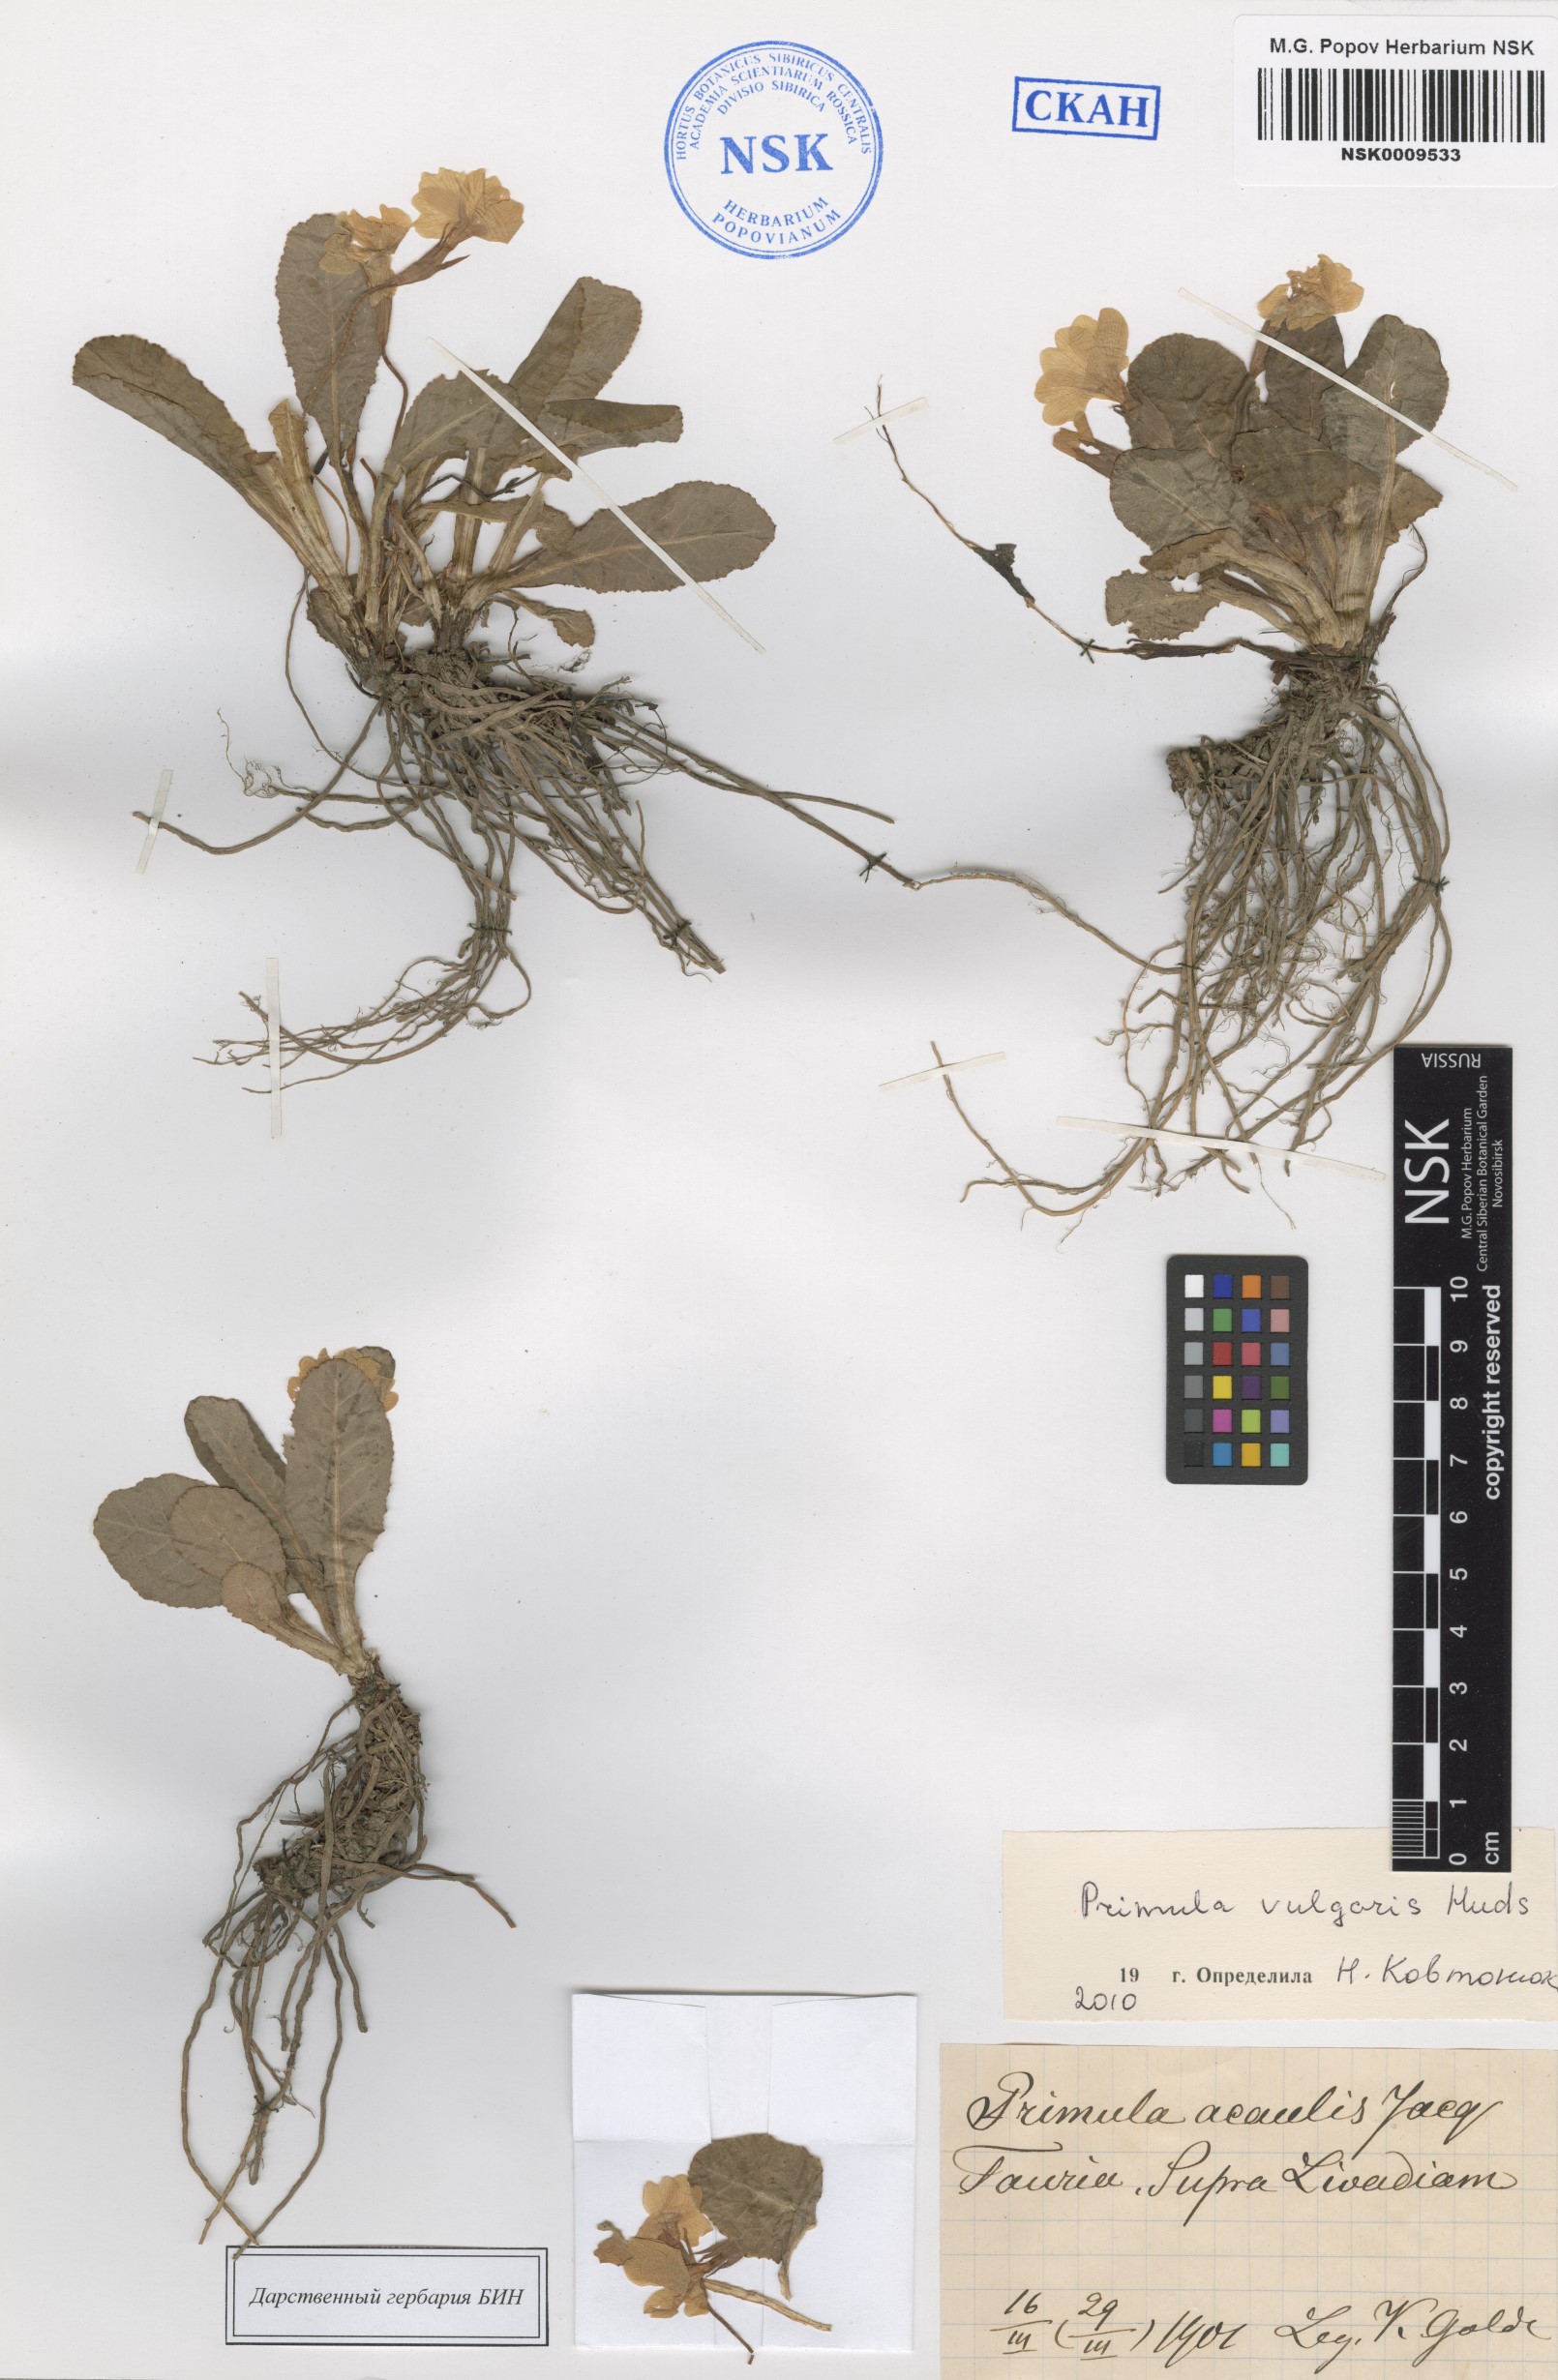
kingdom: Plantae
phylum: Tracheophyta
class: Magnoliopsida
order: Ericales
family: Primulaceae
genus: Primula
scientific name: Primula vulgaris
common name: Primrose
